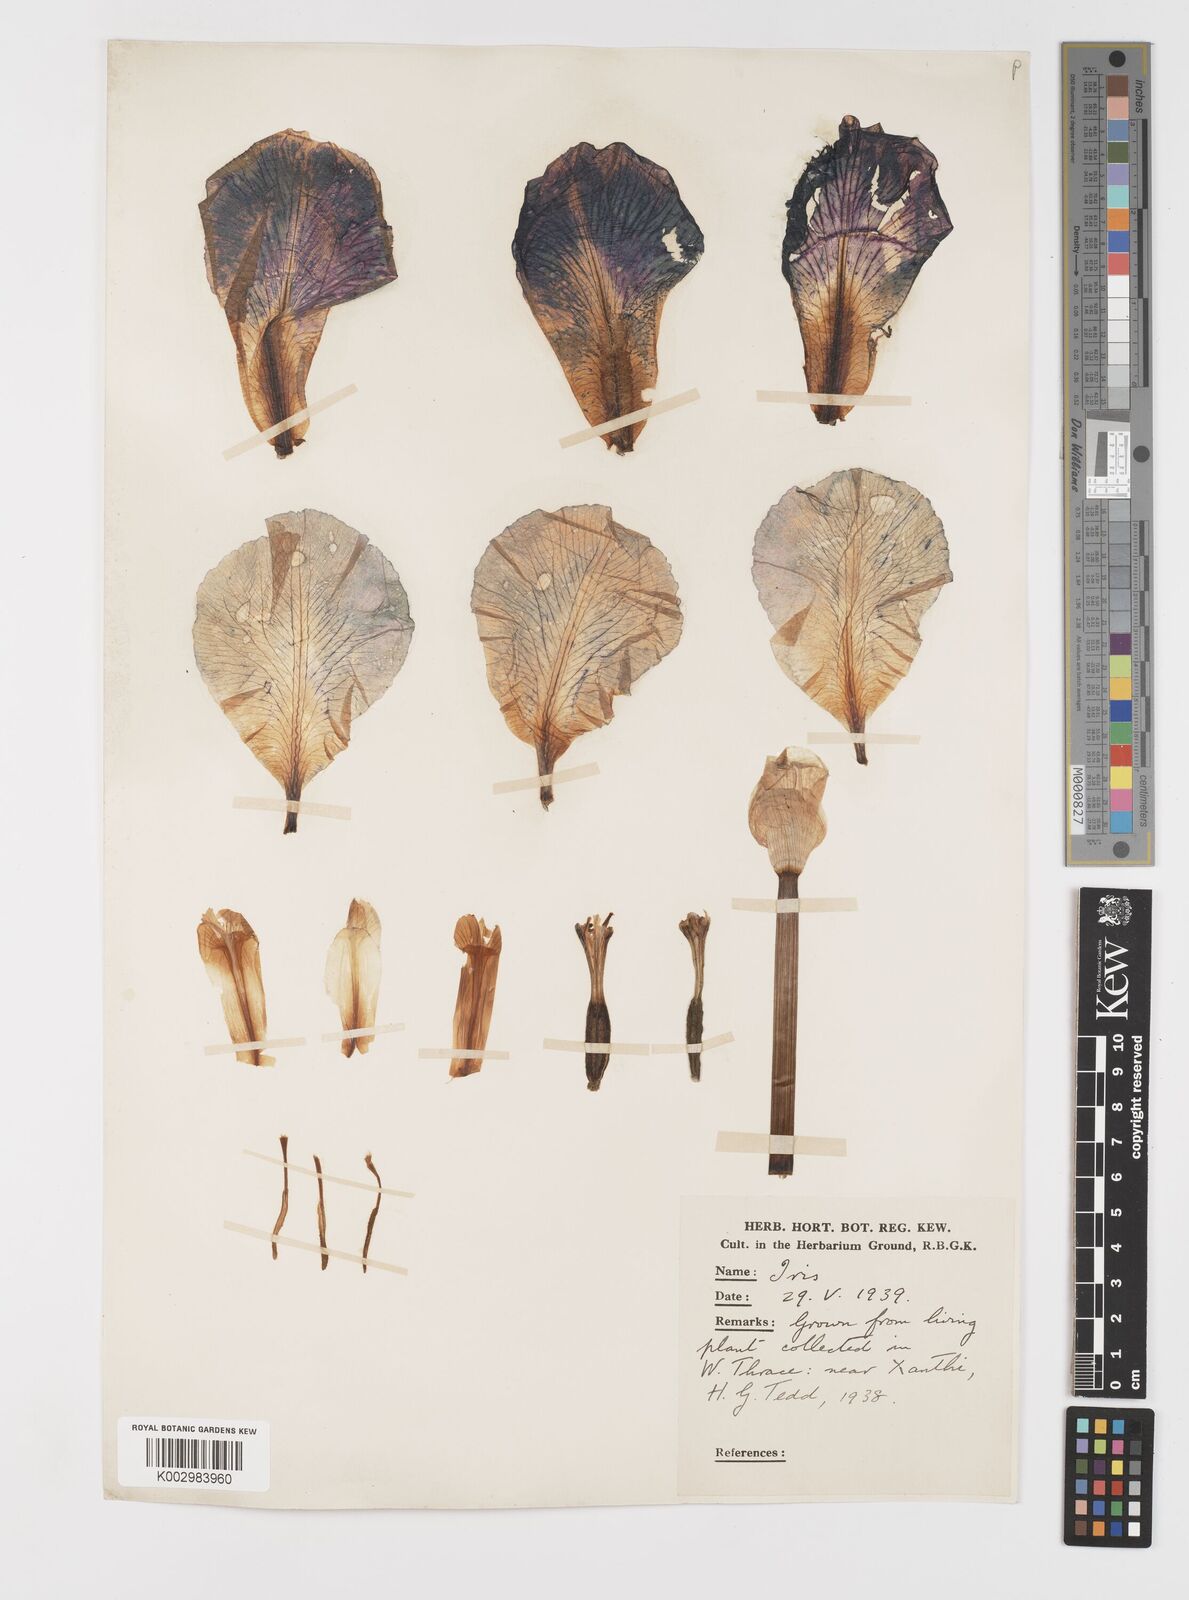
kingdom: Plantae
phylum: Tracheophyta
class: Liliopsida
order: Asparagales
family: Iridaceae
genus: Iris
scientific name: Iris germanica
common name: German iris
